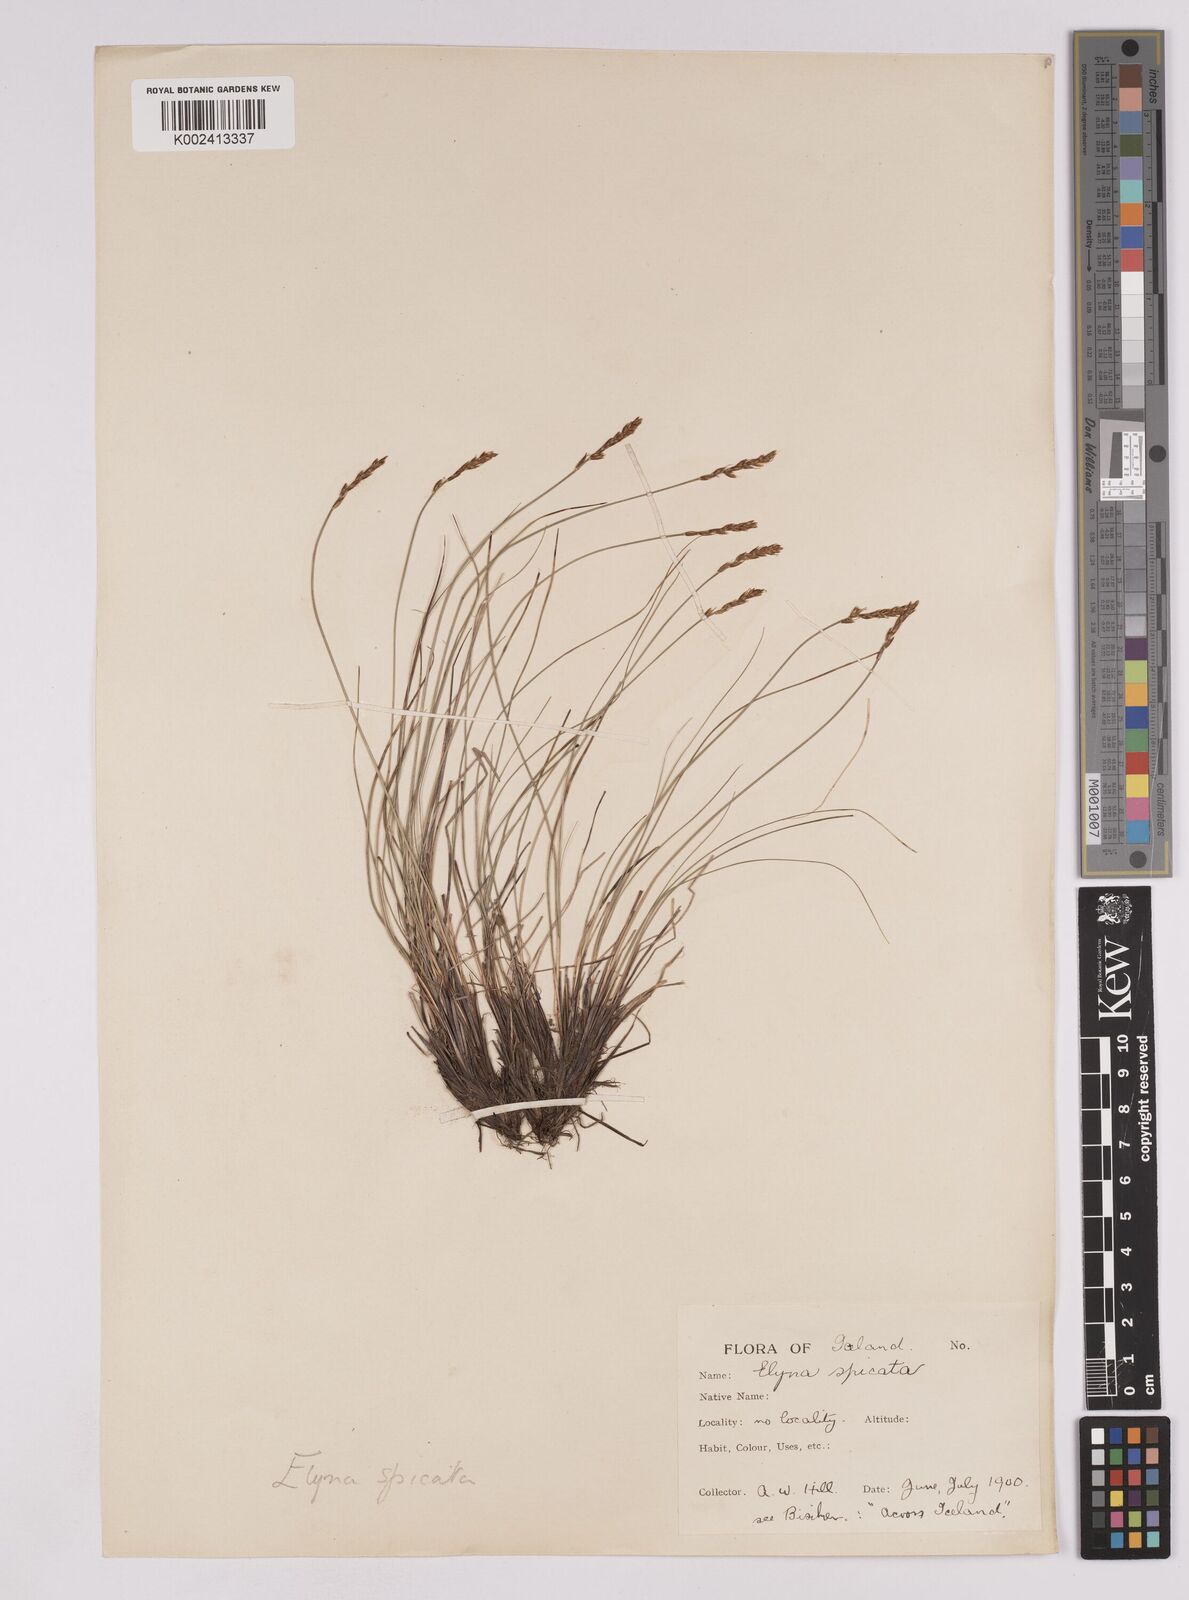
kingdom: Plantae
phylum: Tracheophyta
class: Liliopsida
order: Poales
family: Cyperaceae
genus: Carex
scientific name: Carex myosuroides
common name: Bellard's bog sedge
